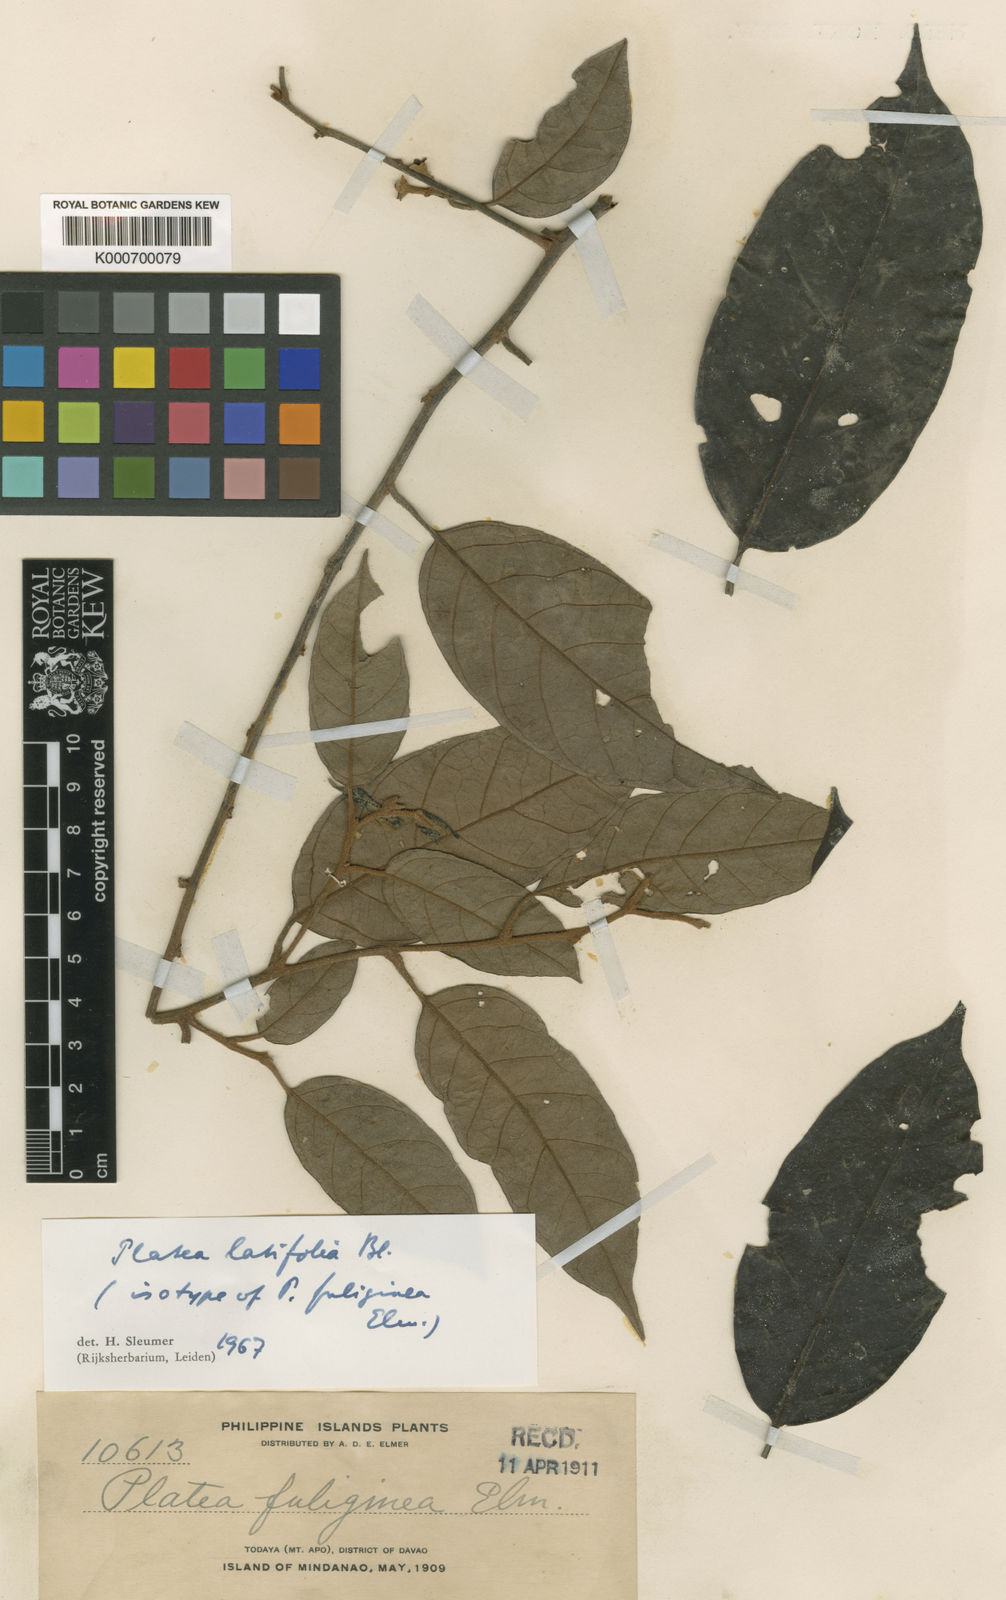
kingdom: Plantae
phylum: Tracheophyta
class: Magnoliopsida
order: Metteniusales
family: Metteniusaceae
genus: Platea
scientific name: Platea latifolia
